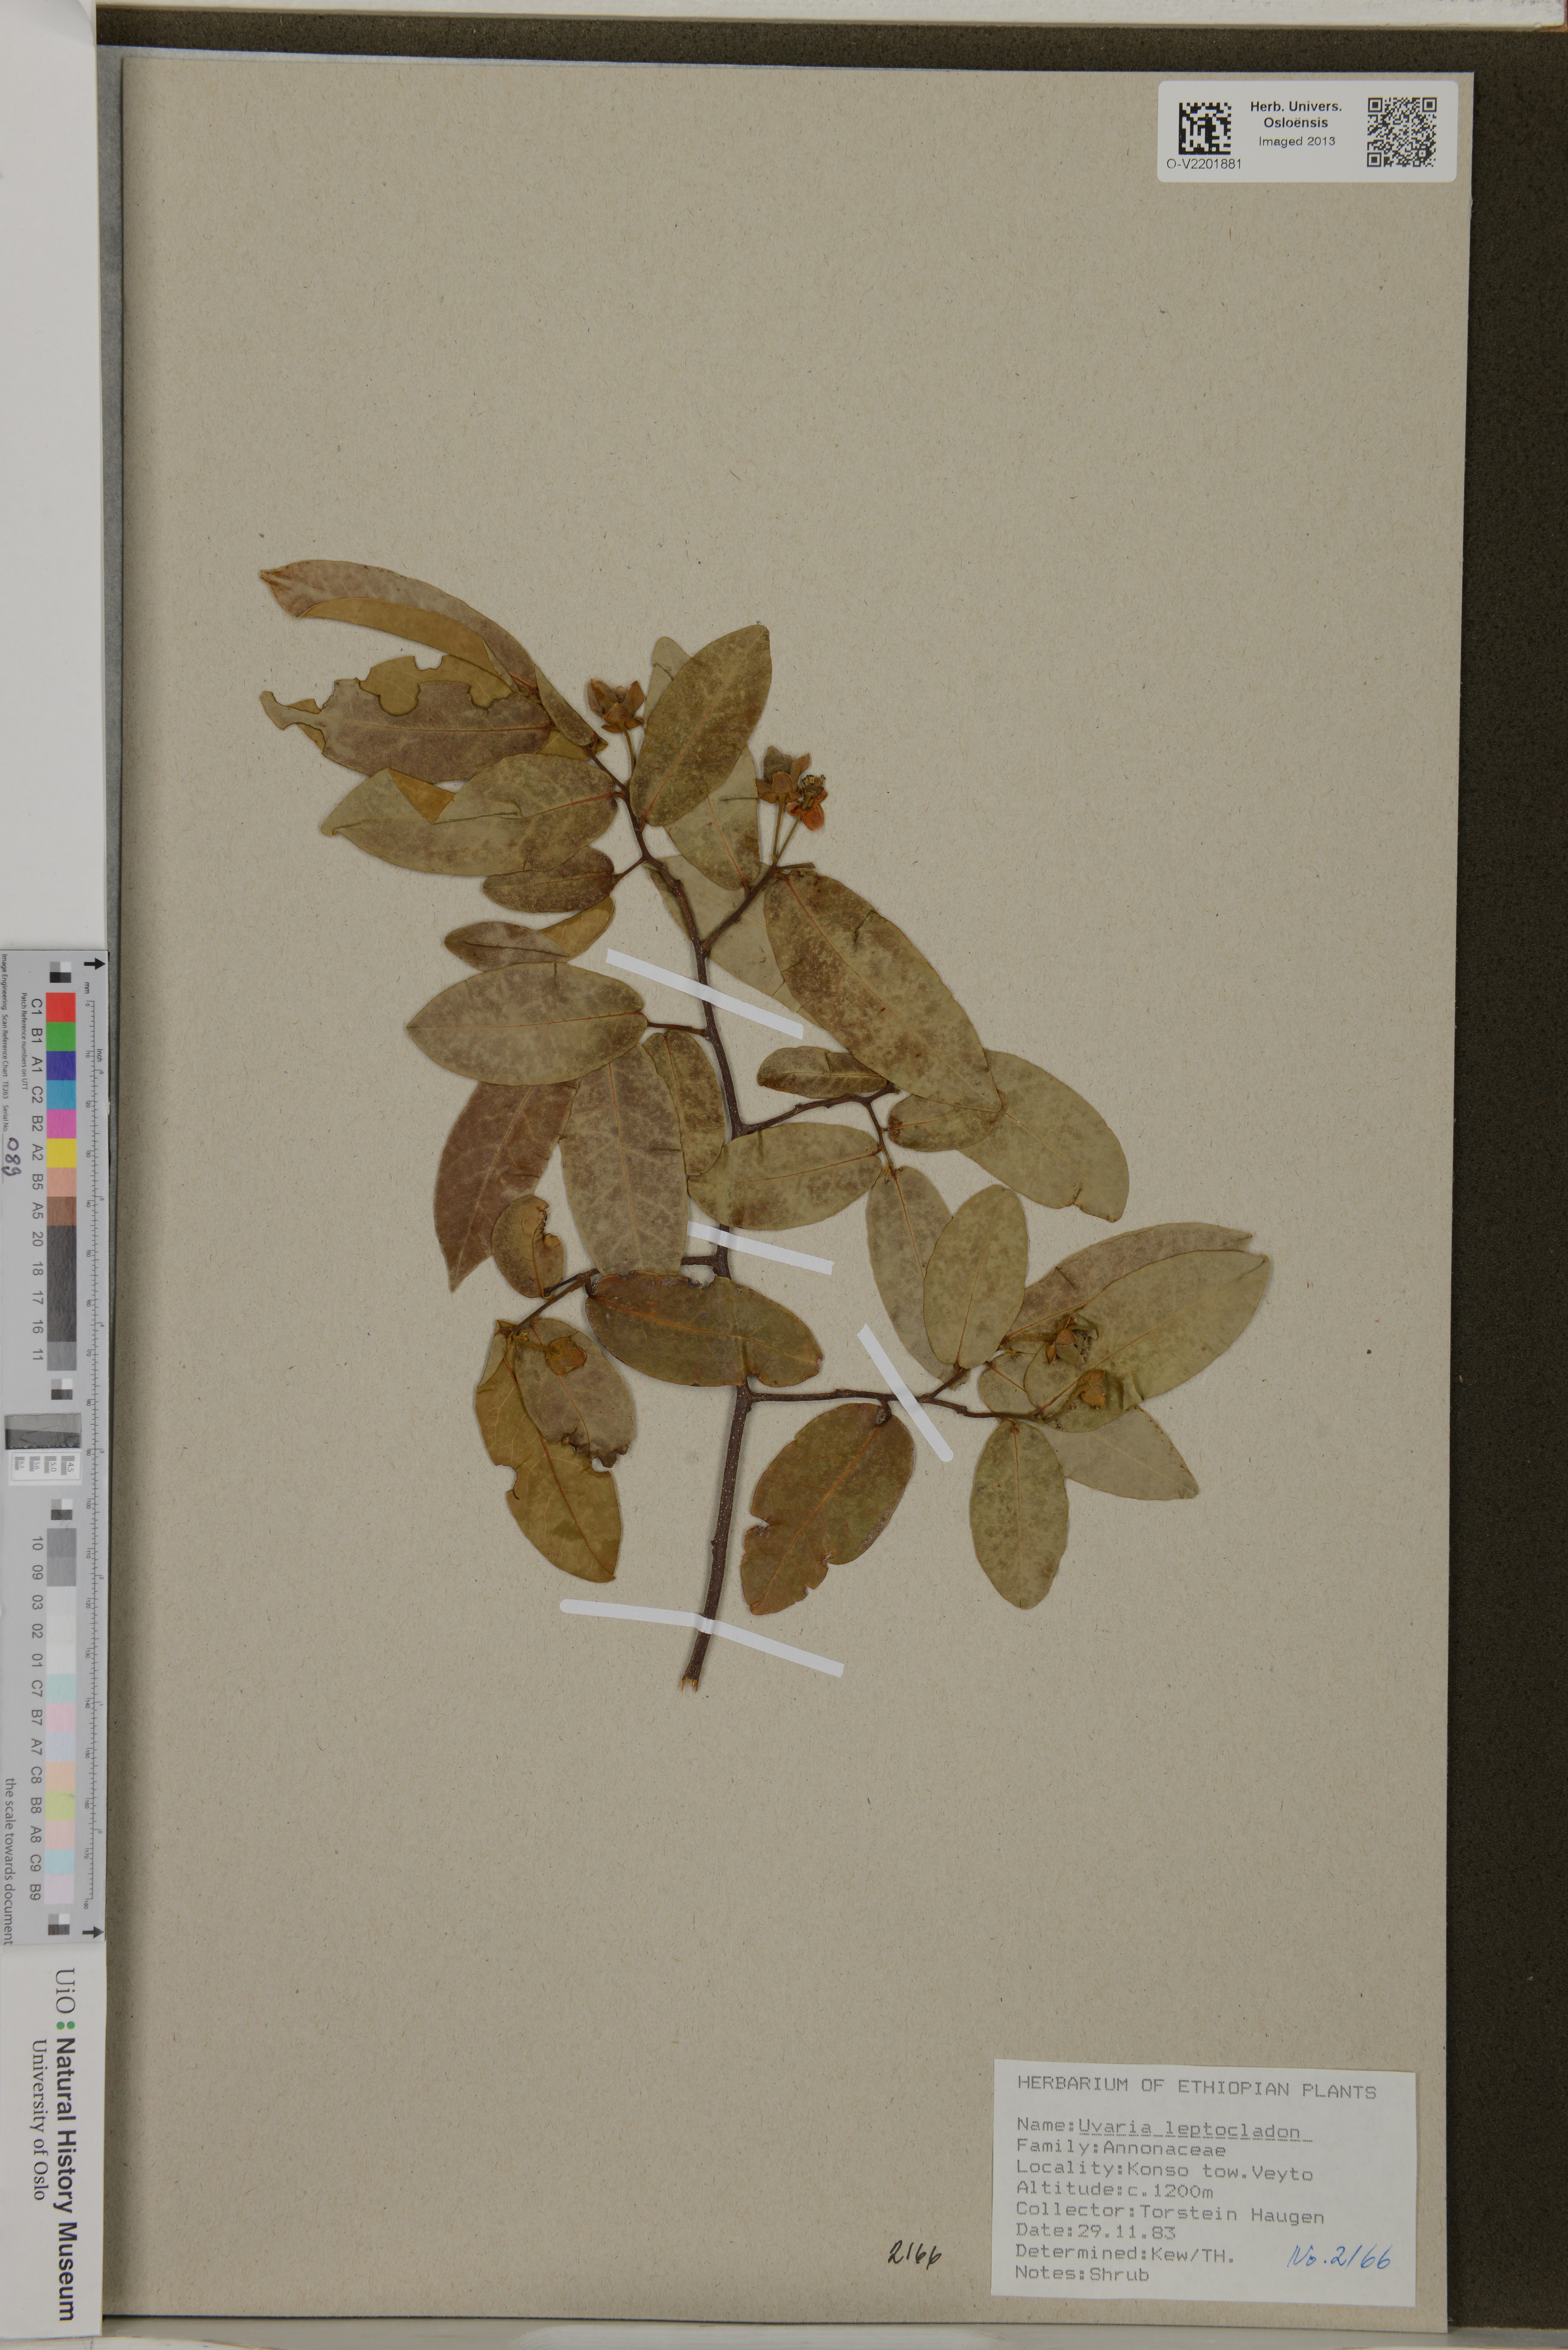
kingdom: Plantae
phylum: Tracheophyta
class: Magnoliopsida
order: Magnoliales
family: Annonaceae
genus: Uvaria
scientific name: Uvaria leptocladon
